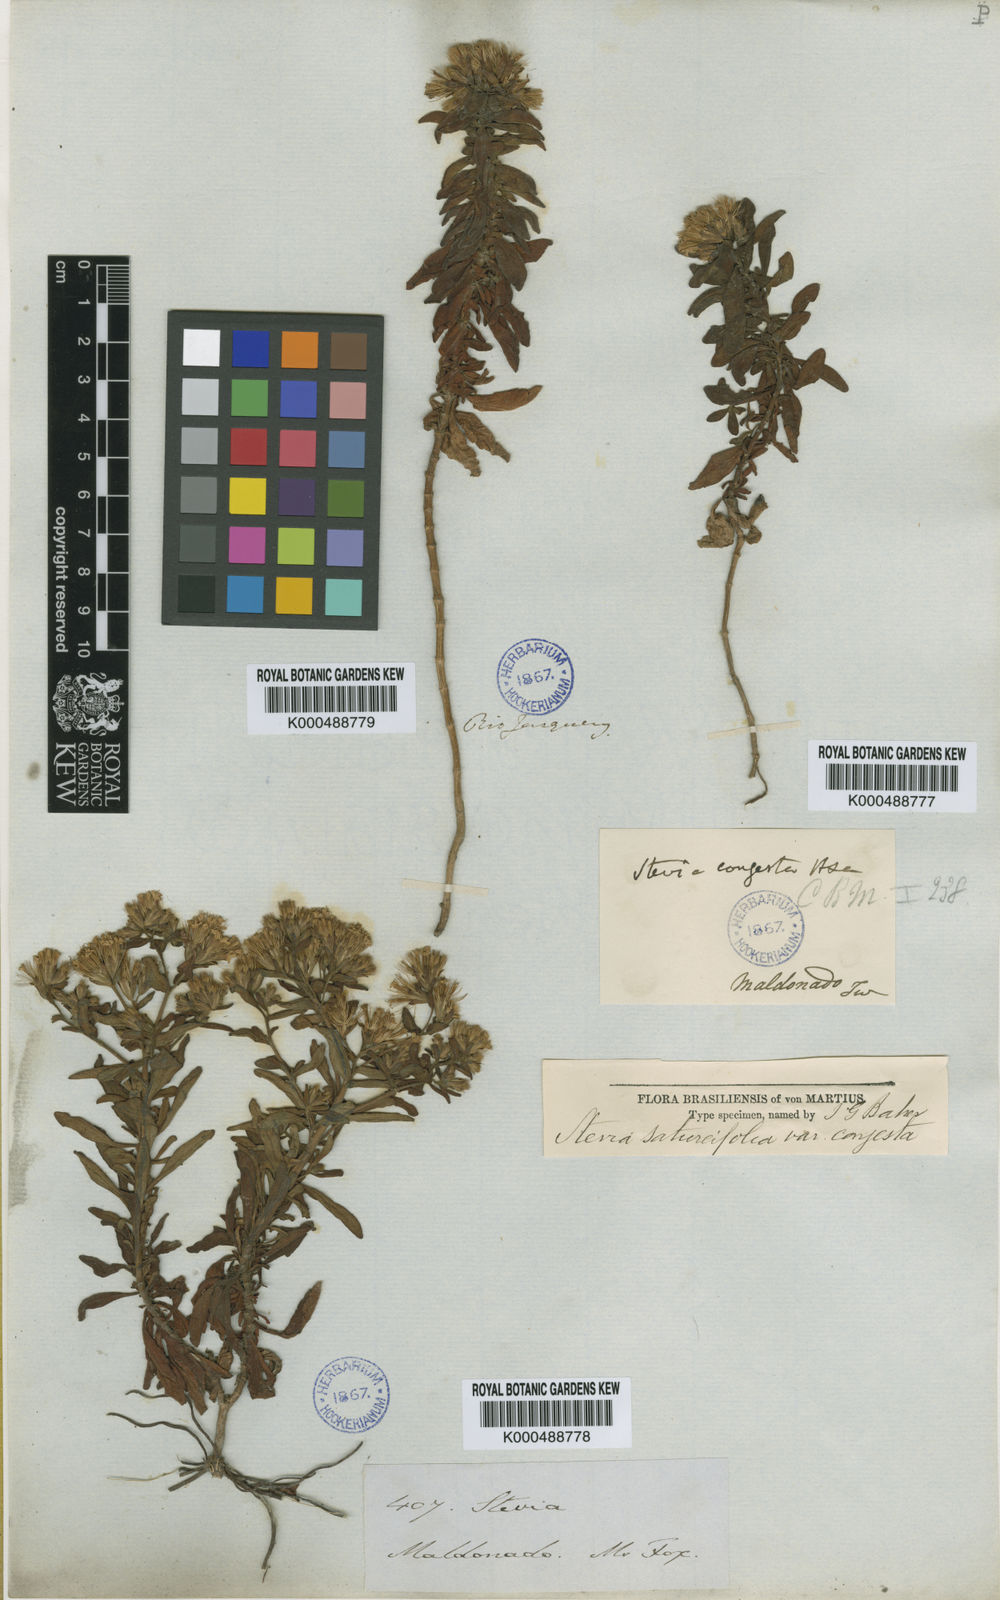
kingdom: Plantae
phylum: Tracheophyta
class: Magnoliopsida
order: Asterales
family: Asteraceae
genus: Stevia
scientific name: Stevia satureifolia
